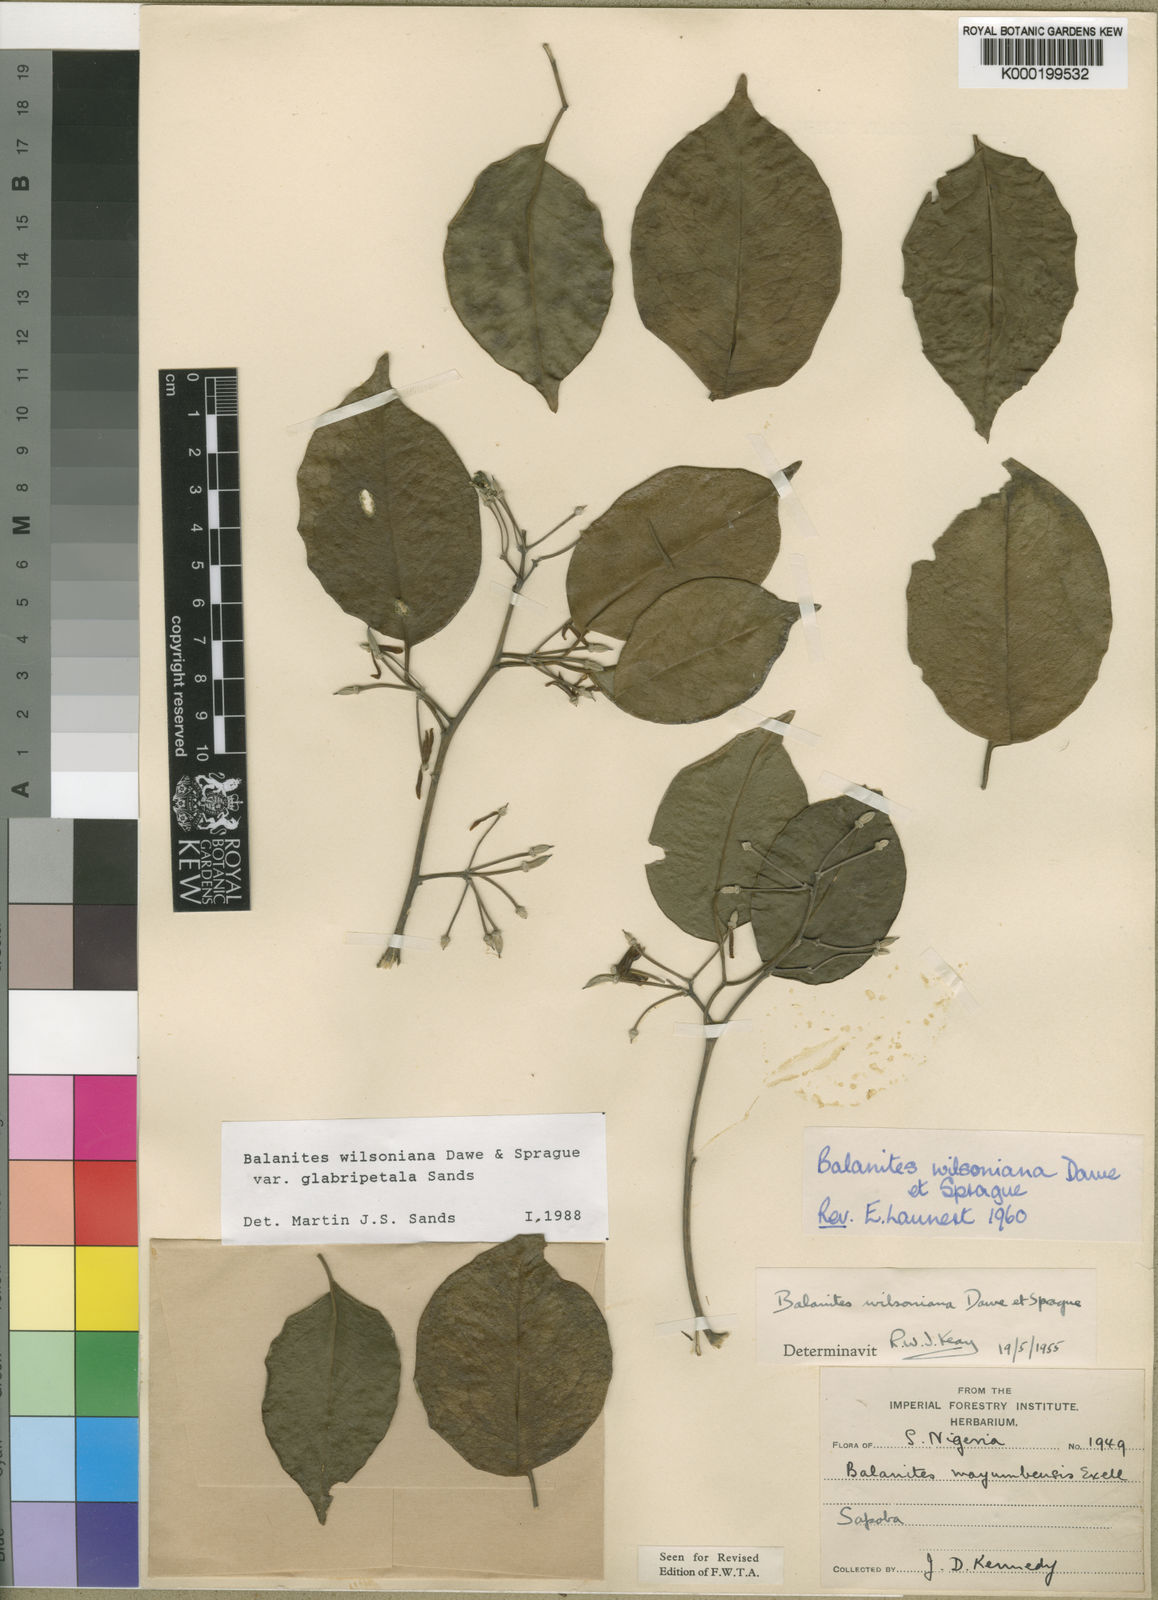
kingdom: Plantae
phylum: Tracheophyta
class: Magnoliopsida
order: Zygophyllales
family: Zygophyllaceae
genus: Balanites
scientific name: Balanites wilsoniana
